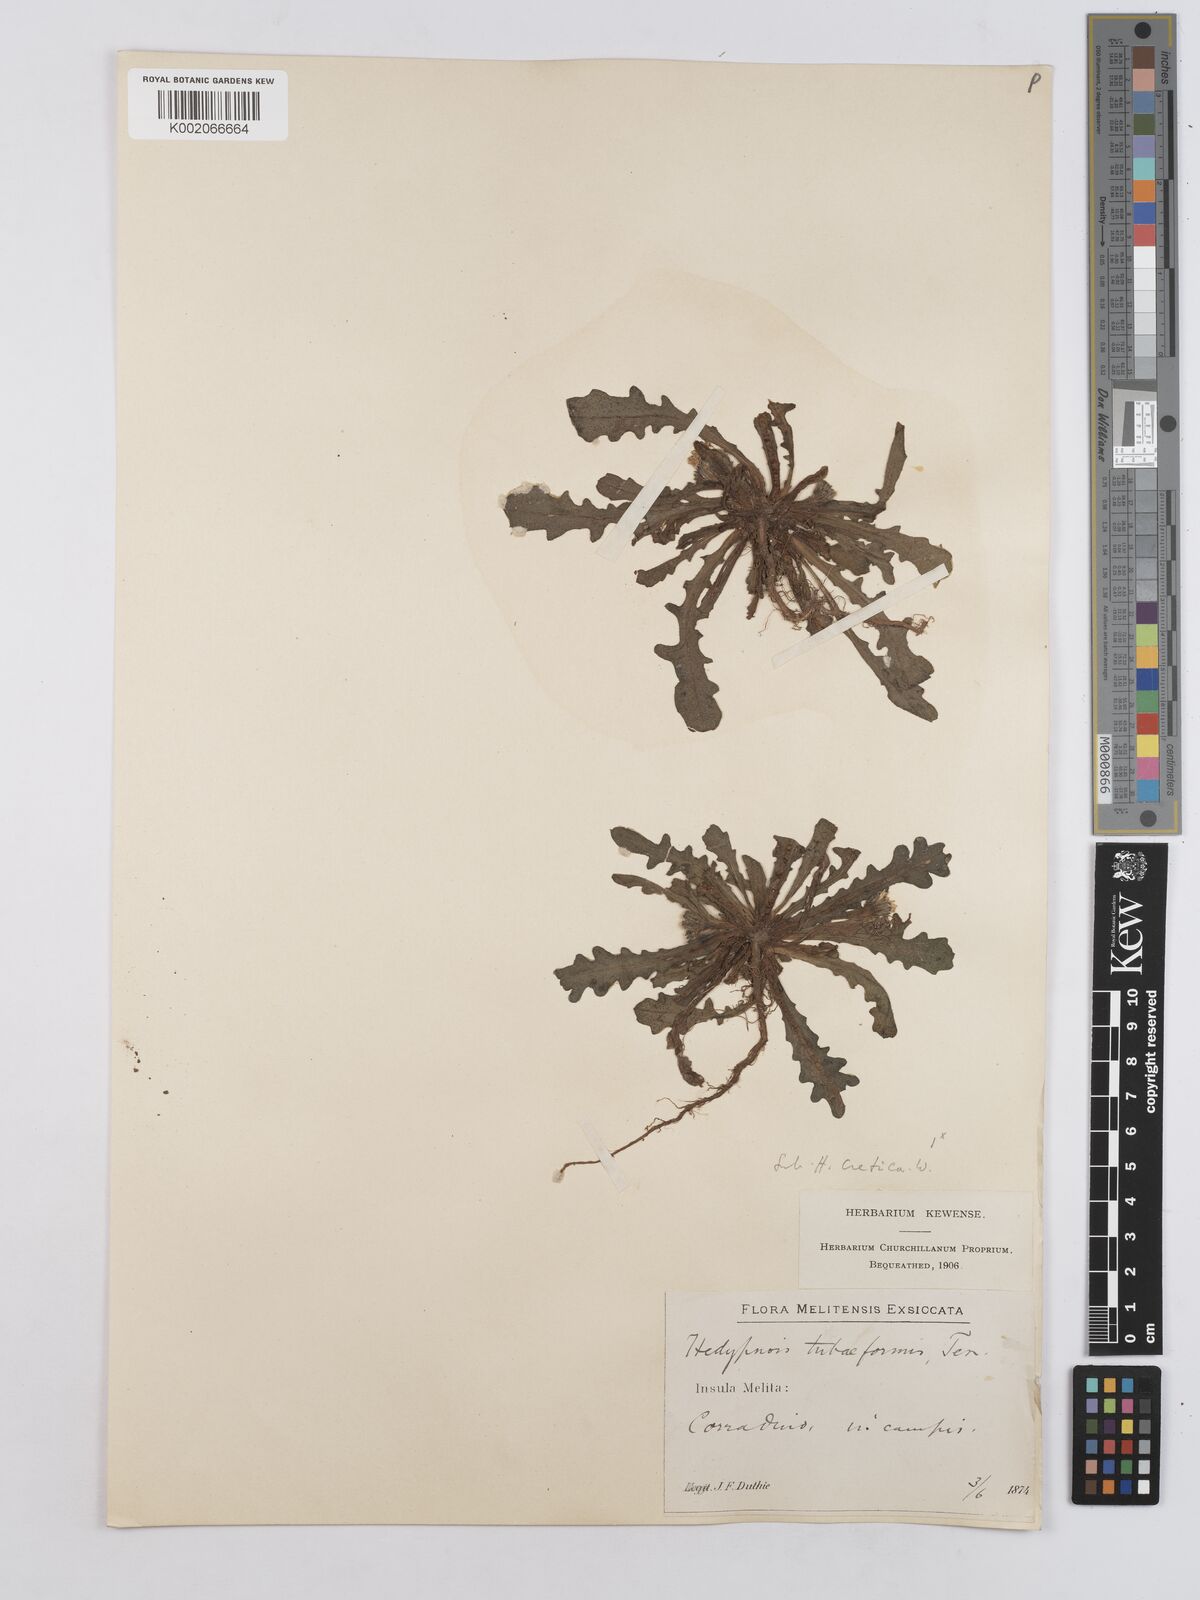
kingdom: Plantae
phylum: Tracheophyta
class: Magnoliopsida
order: Asterales
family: Asteraceae
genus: Hedypnois
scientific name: Hedypnois rhagadioloides
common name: Cretan weed
